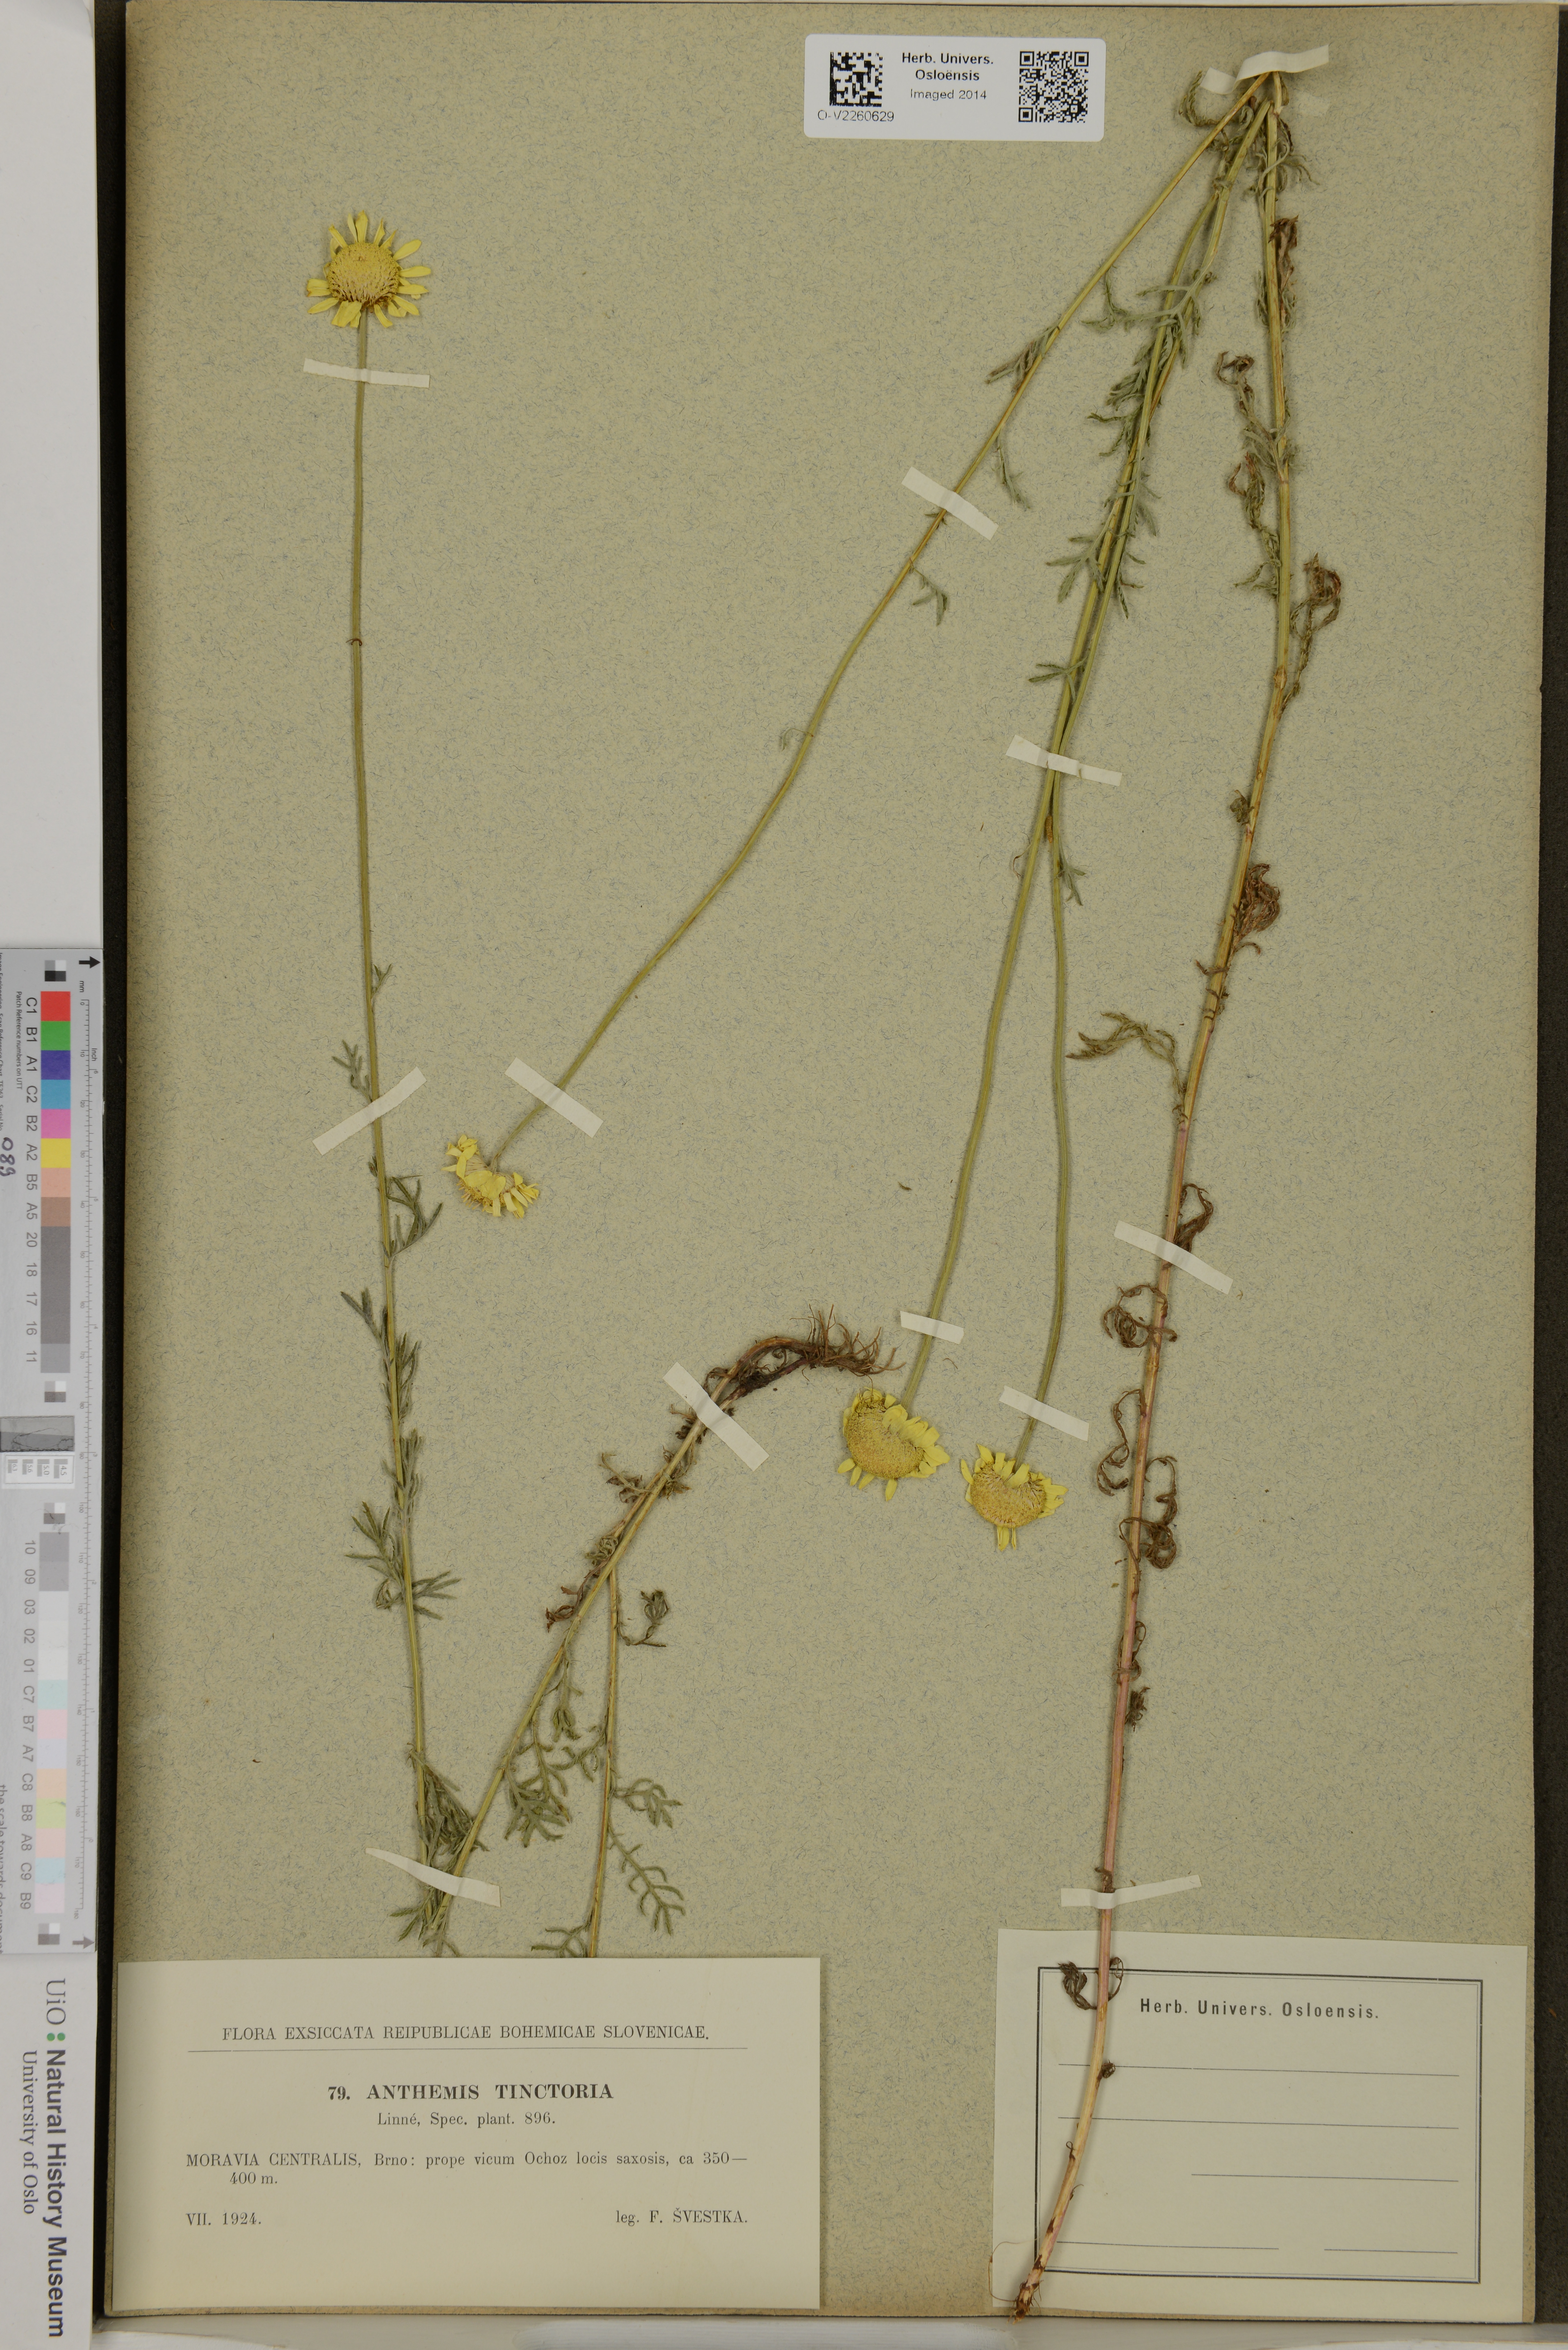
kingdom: Plantae
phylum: Tracheophyta
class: Magnoliopsida
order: Asterales
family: Asteraceae
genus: Cota
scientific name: Cota tinctoria
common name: Golden chamomile
